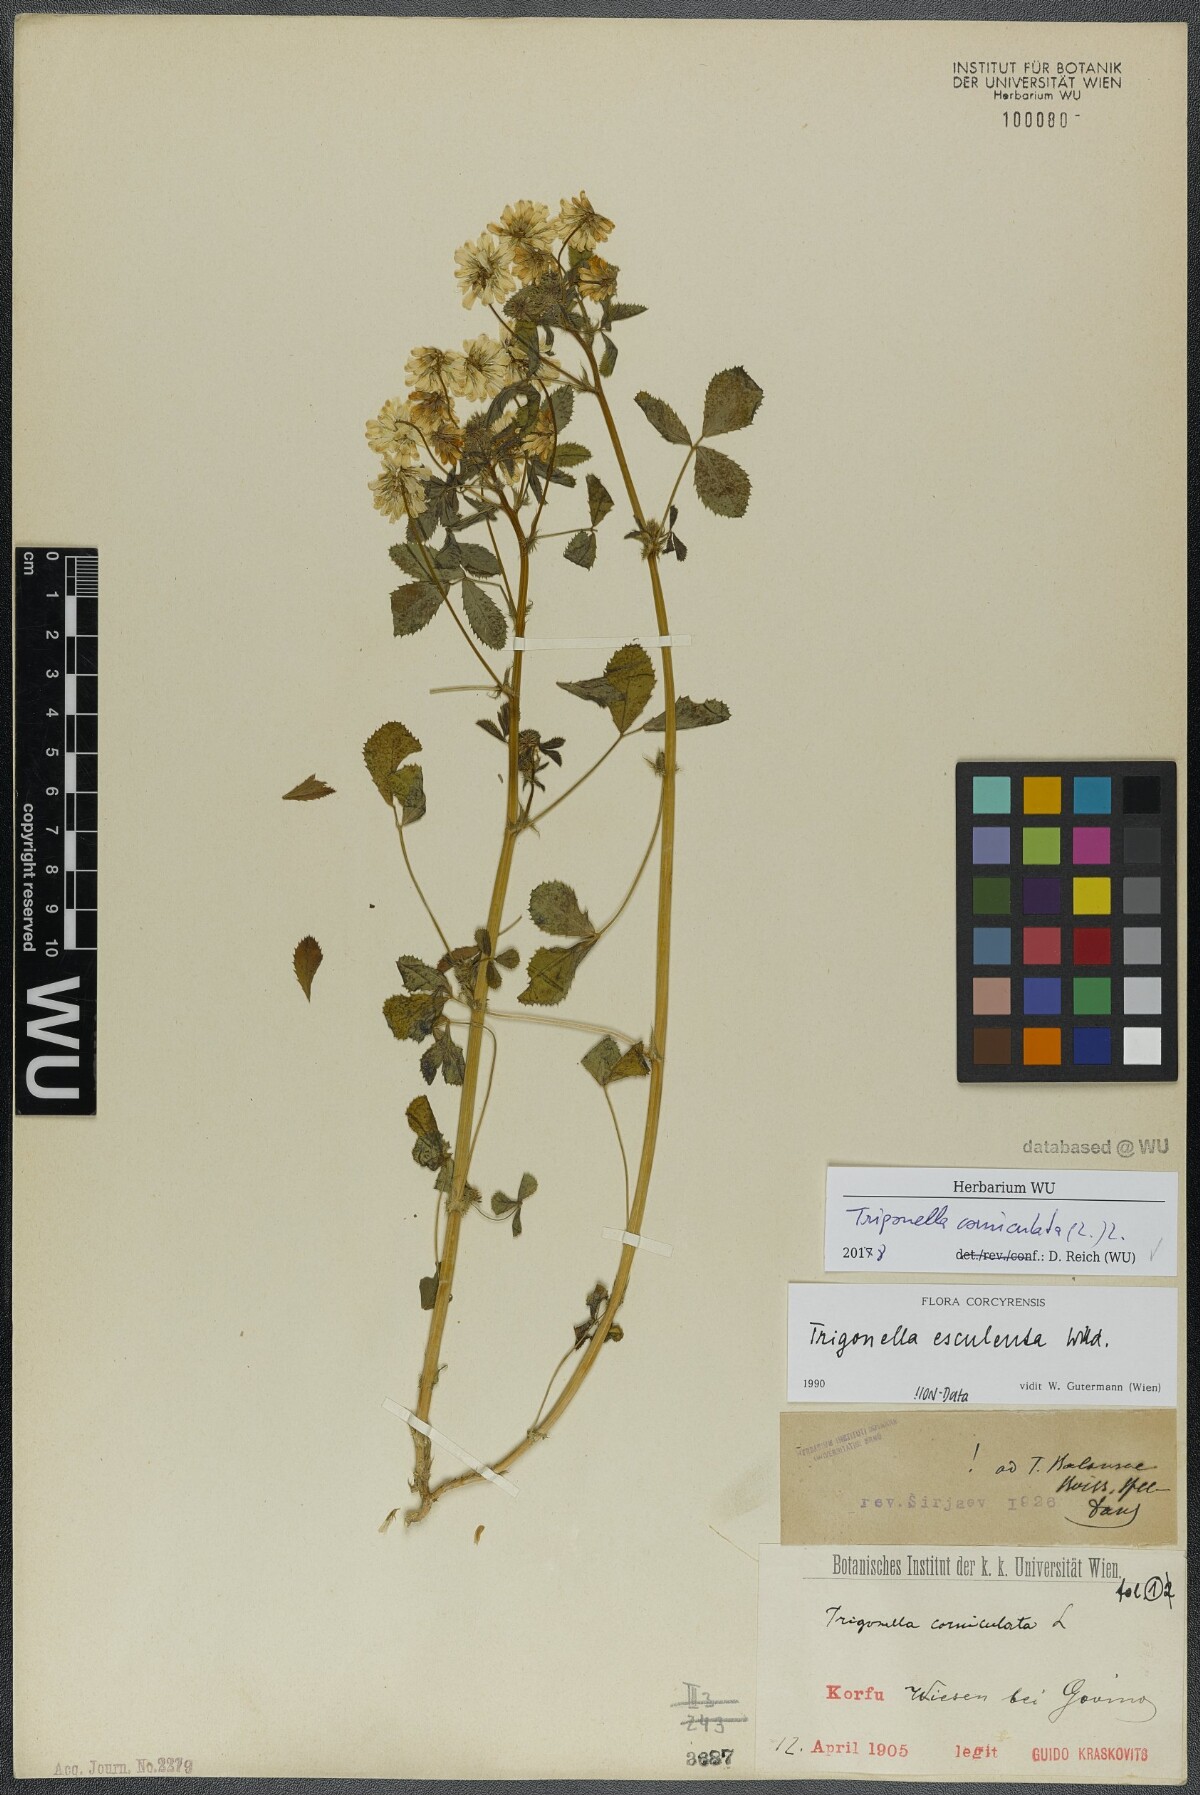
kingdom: Plantae
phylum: Tracheophyta
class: Magnoliopsida
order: Fabales
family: Fabaceae
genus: Trigonella
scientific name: Trigonella balansae
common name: Sickle-fruited fenugreek
